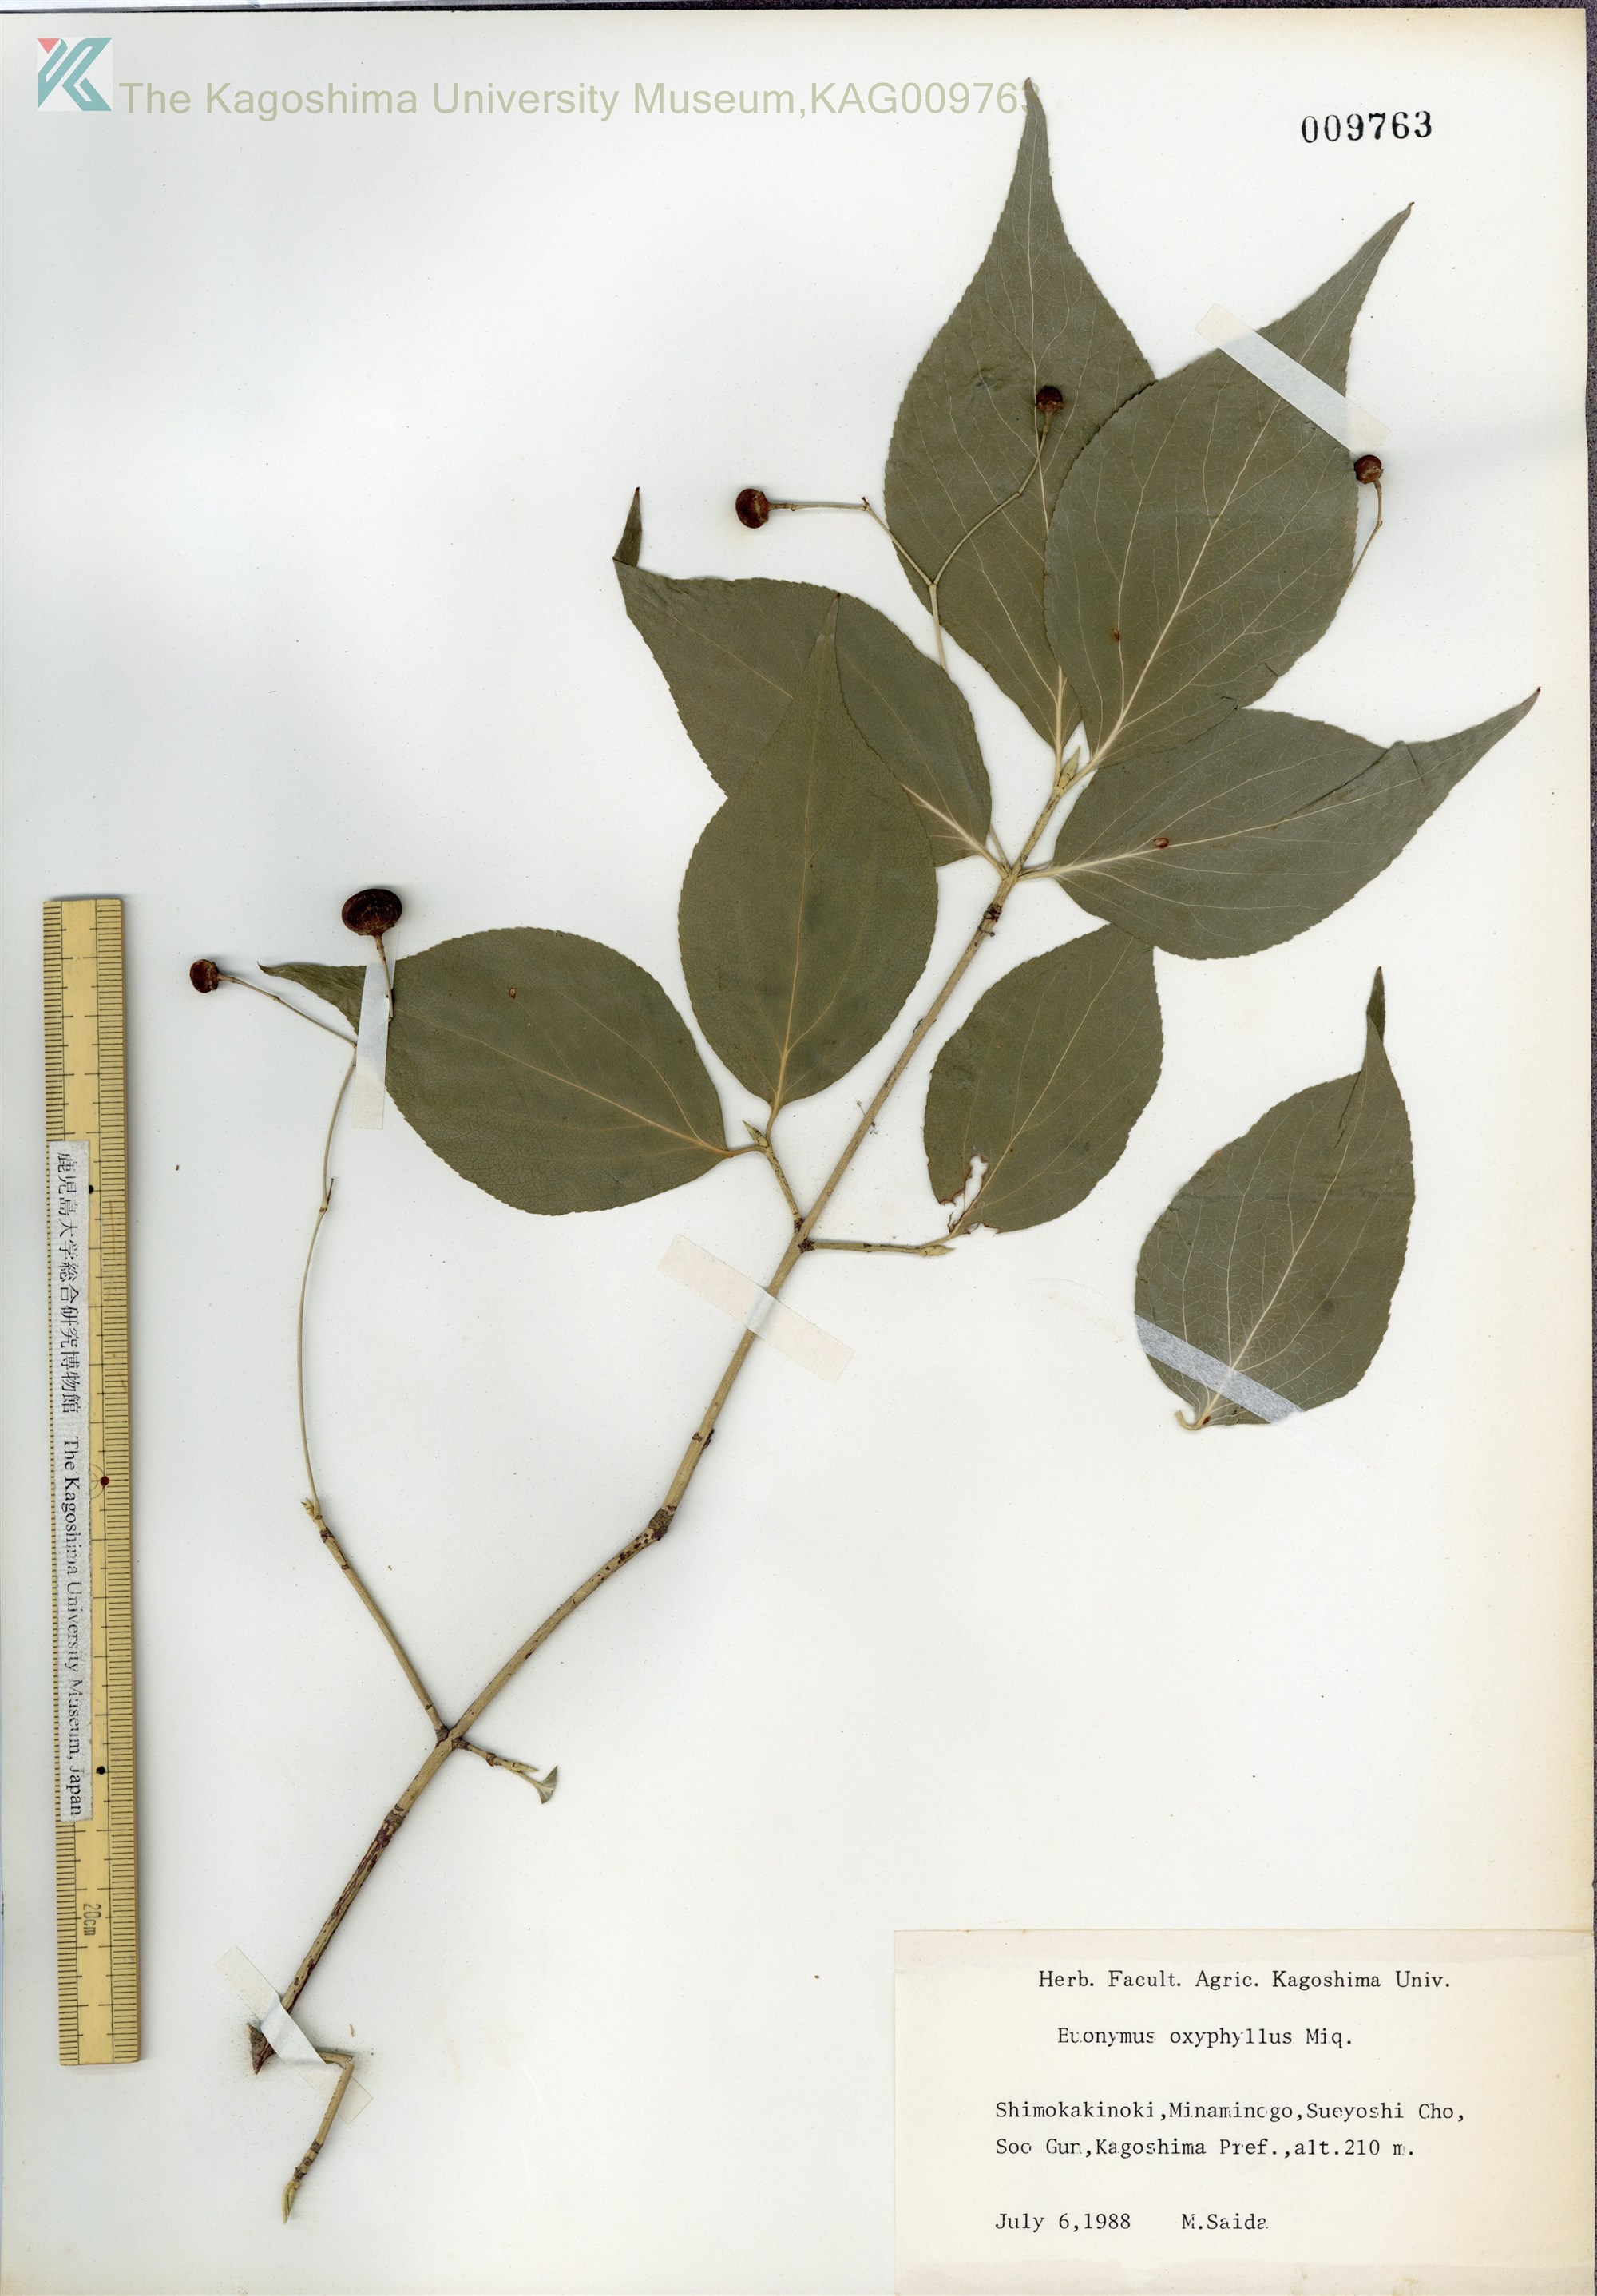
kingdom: Plantae
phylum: Tracheophyta
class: Magnoliopsida
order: Celastrales
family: Celastraceae
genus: Euonymus
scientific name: Euonymus oxyphyllus
